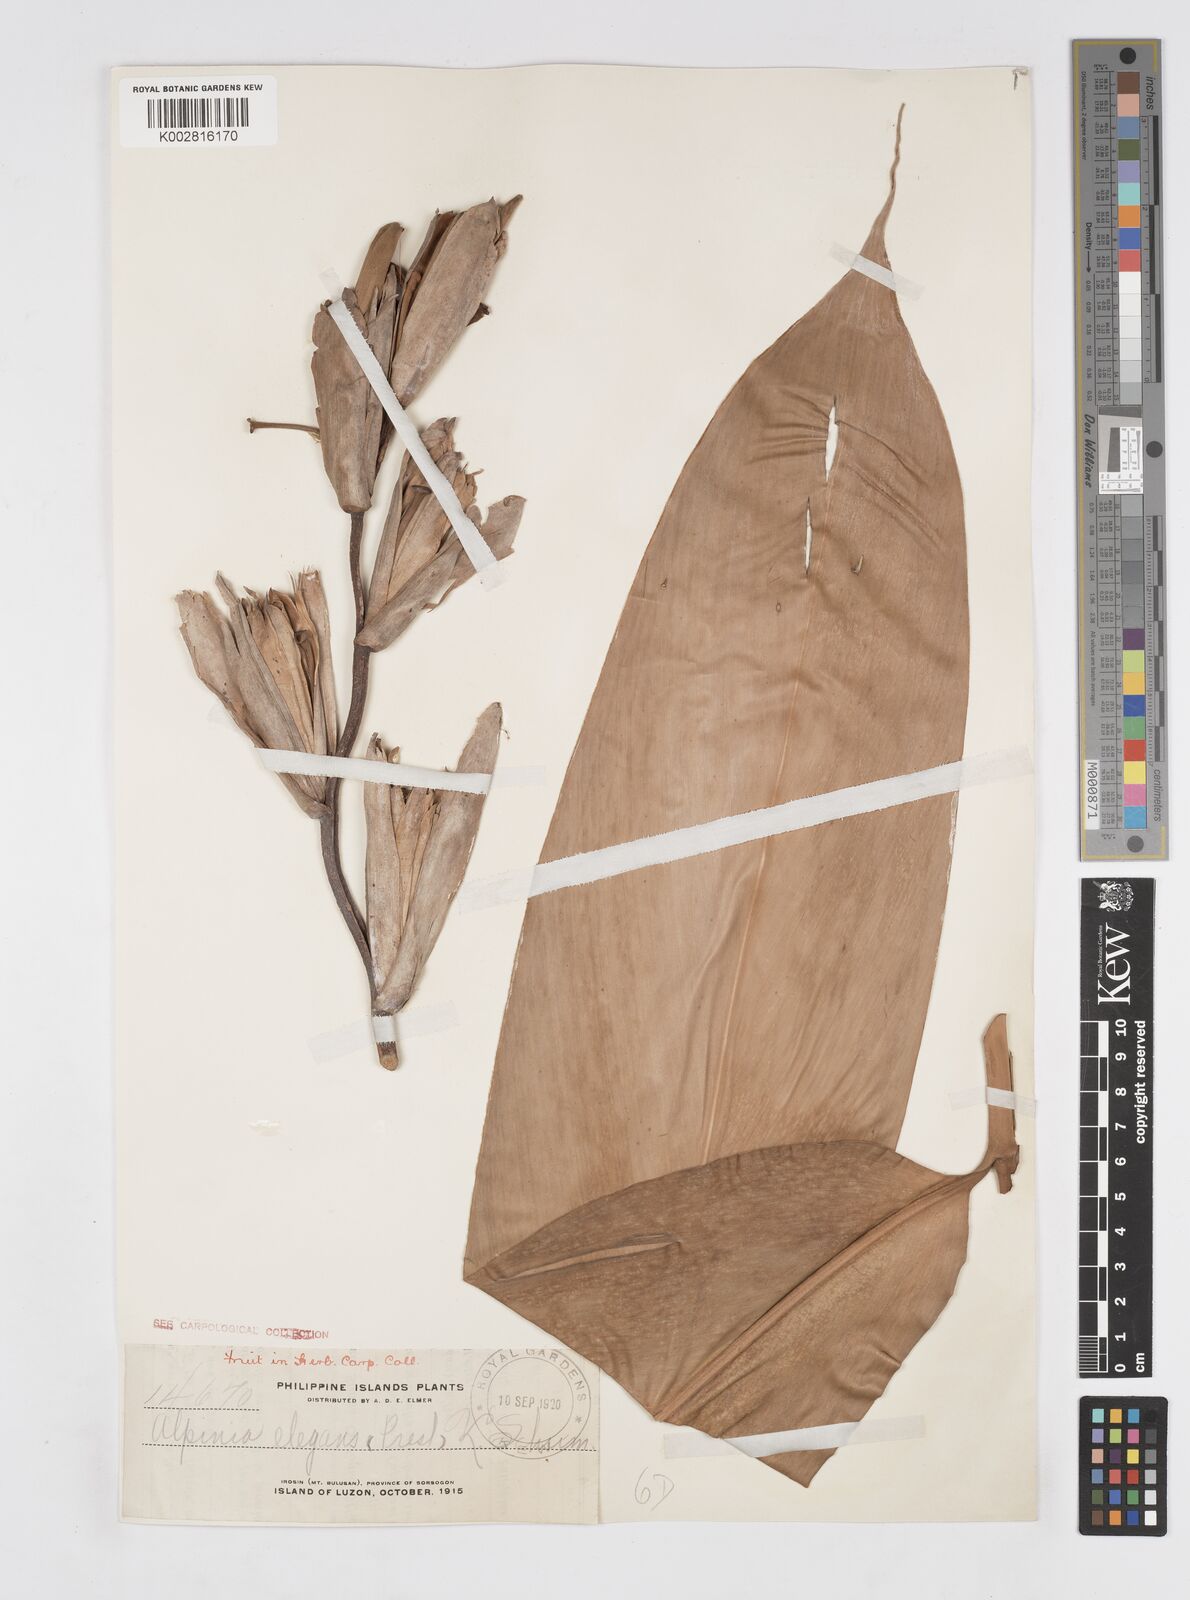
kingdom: Plantae
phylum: Tracheophyta
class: Liliopsida
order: Zingiberales
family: Zingiberaceae
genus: Alpinia
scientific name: Alpinia elegans
